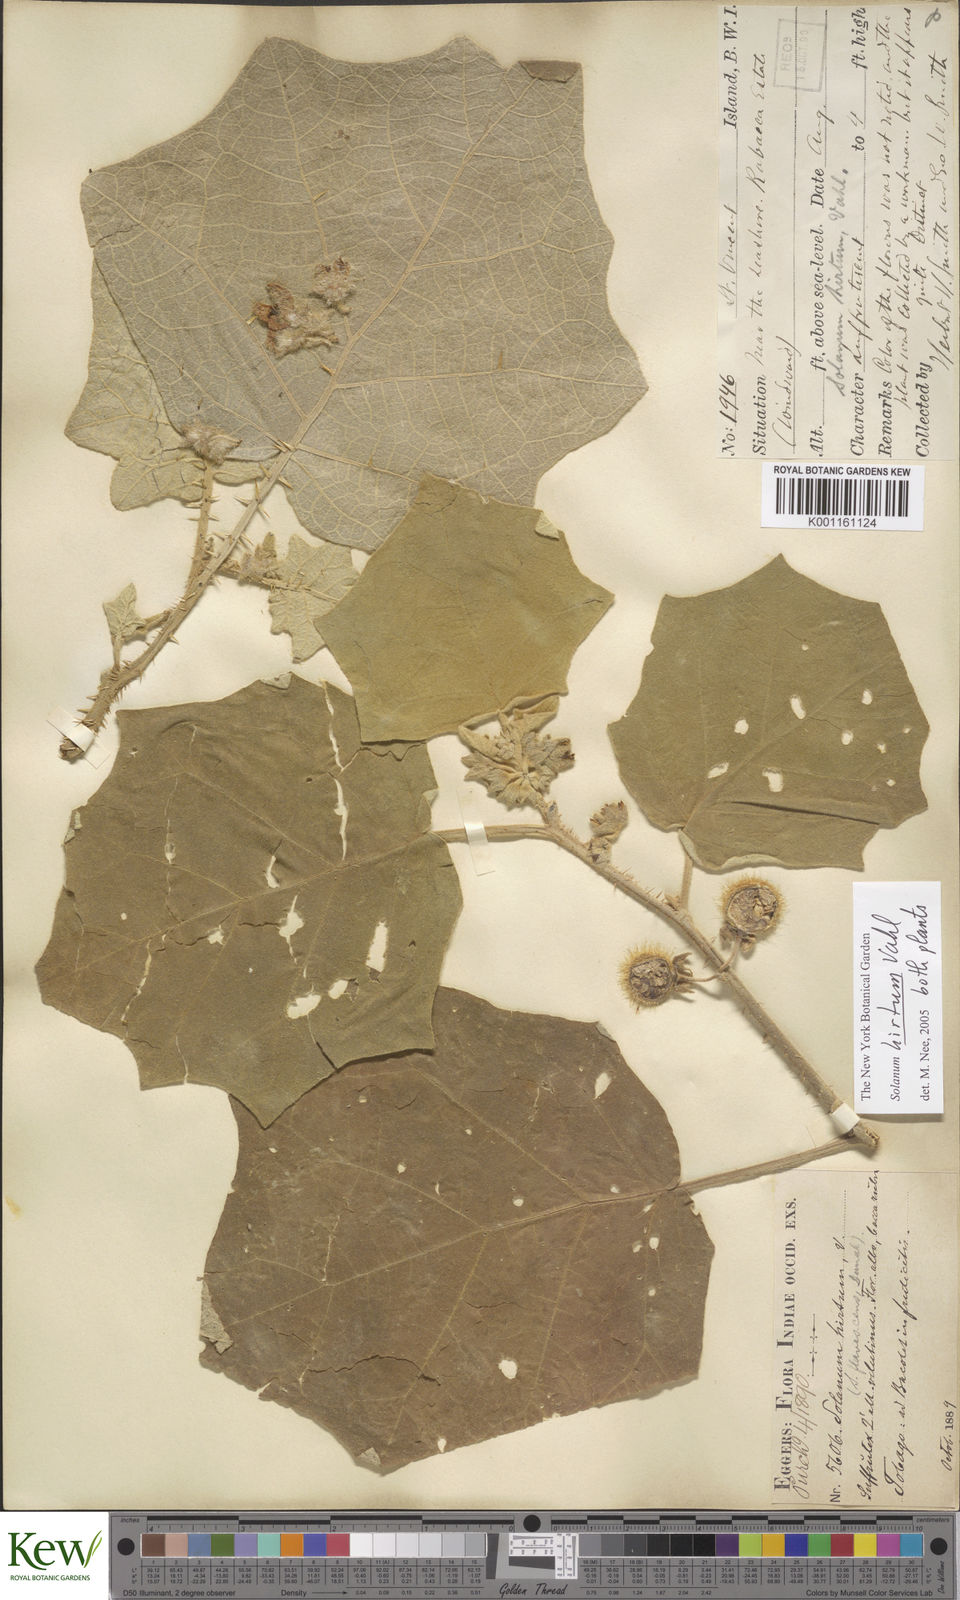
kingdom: Plantae
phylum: Tracheophyta
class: Magnoliopsida
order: Solanales
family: Solanaceae
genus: Solanum
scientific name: Solanum hirtum
